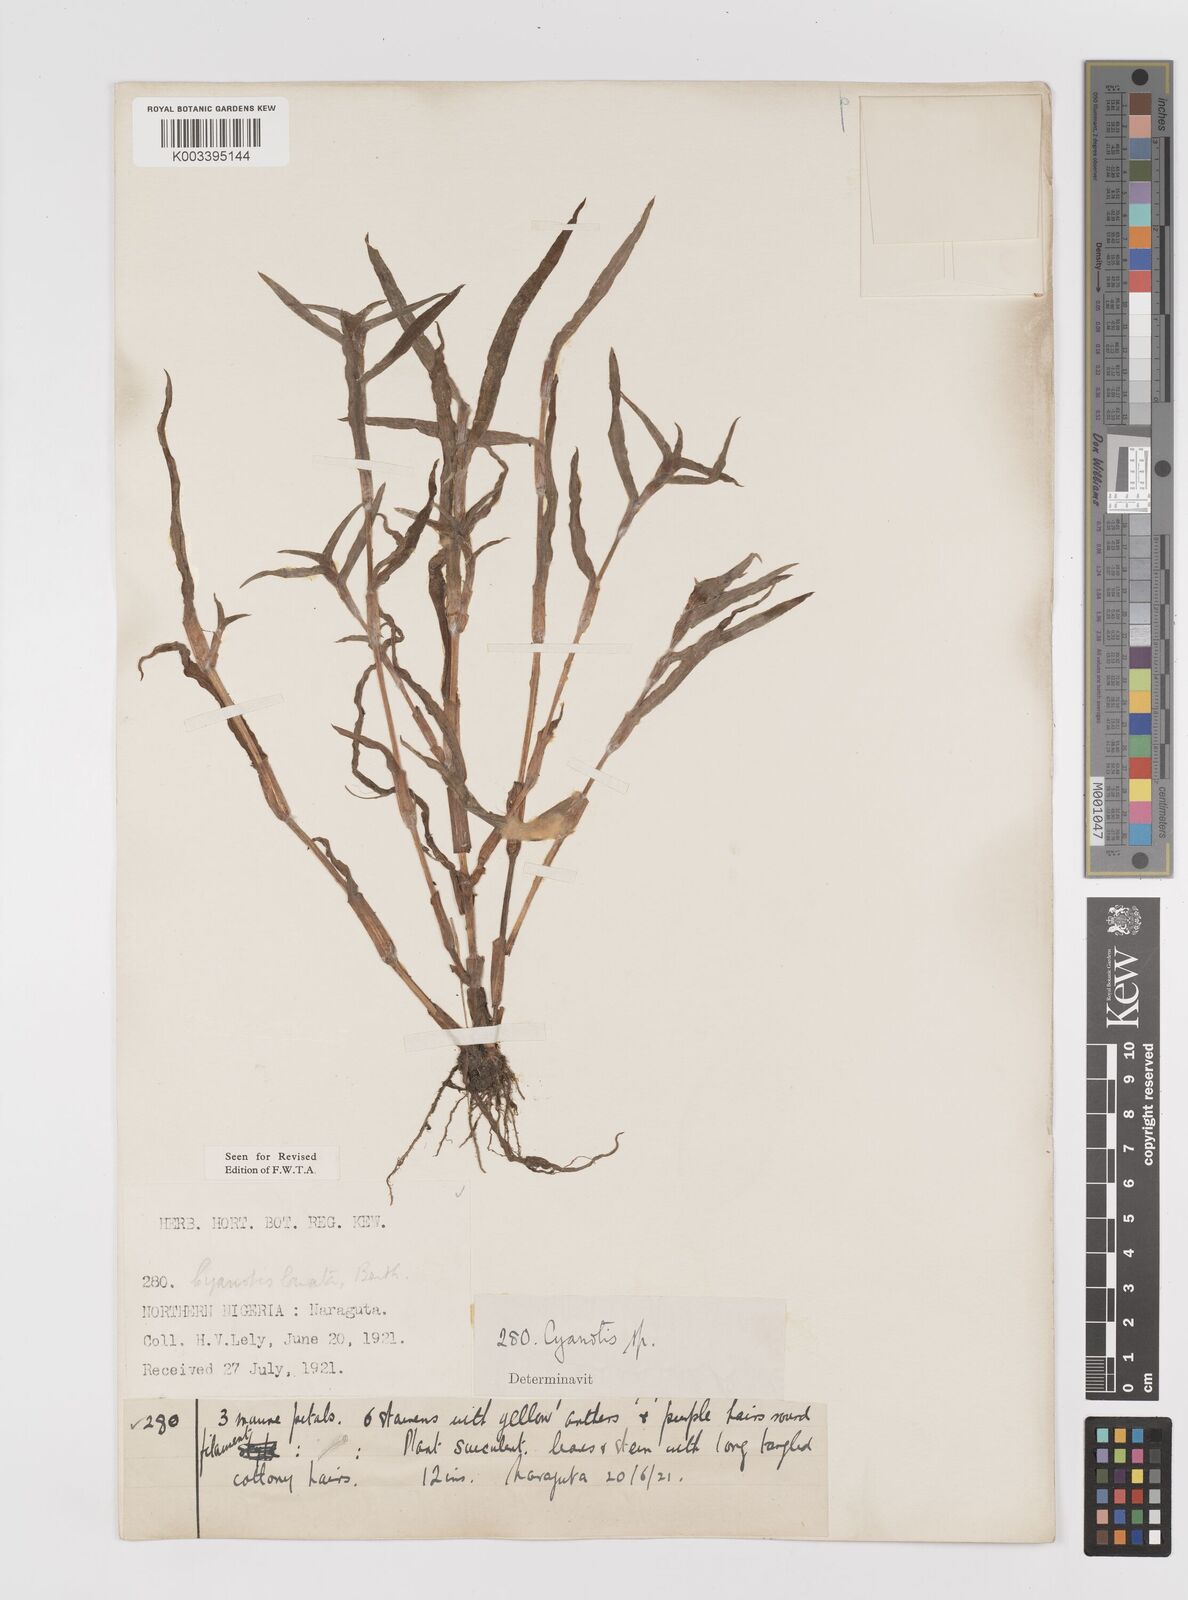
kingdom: Plantae
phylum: Tracheophyta
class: Liliopsida
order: Commelinales
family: Commelinaceae
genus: Cyanotis
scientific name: Cyanotis lanata
